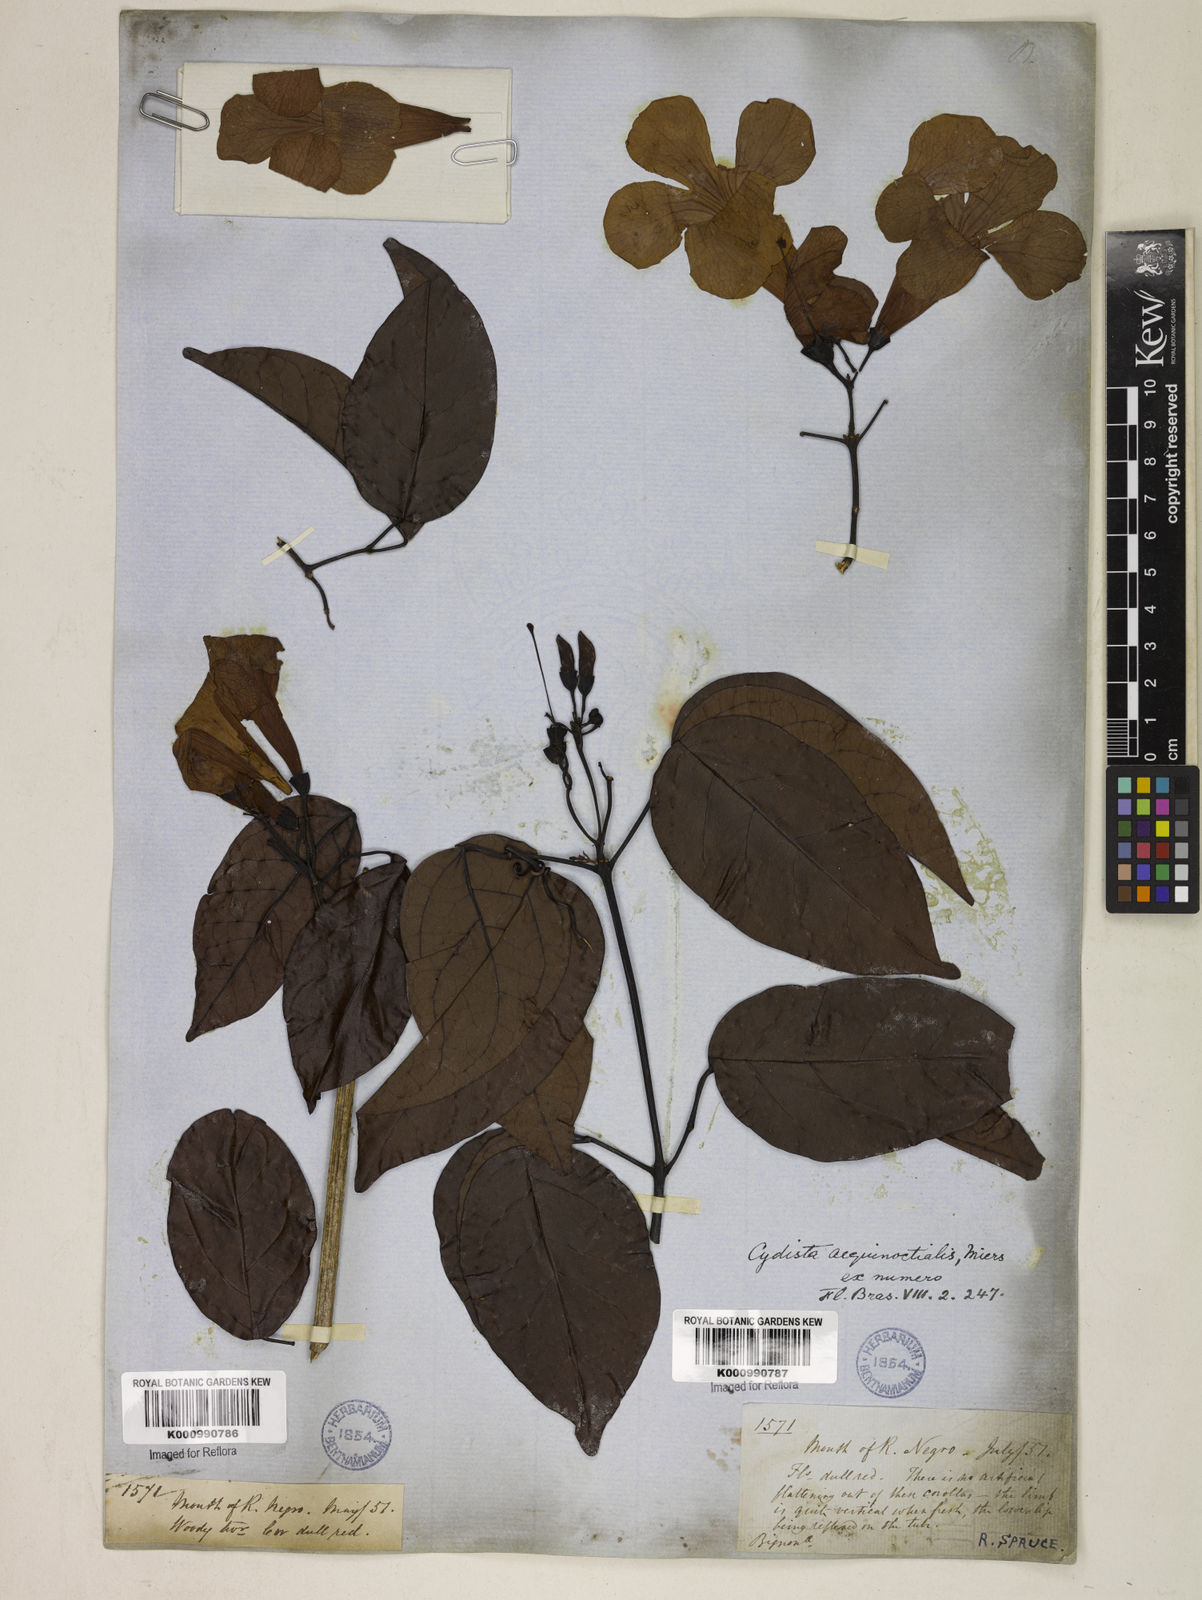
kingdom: Plantae
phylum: Tracheophyta
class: Magnoliopsida
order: Lamiales
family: Bignoniaceae
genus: Bignonia
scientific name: Bignonia aequinoctialis
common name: Garlicvine
